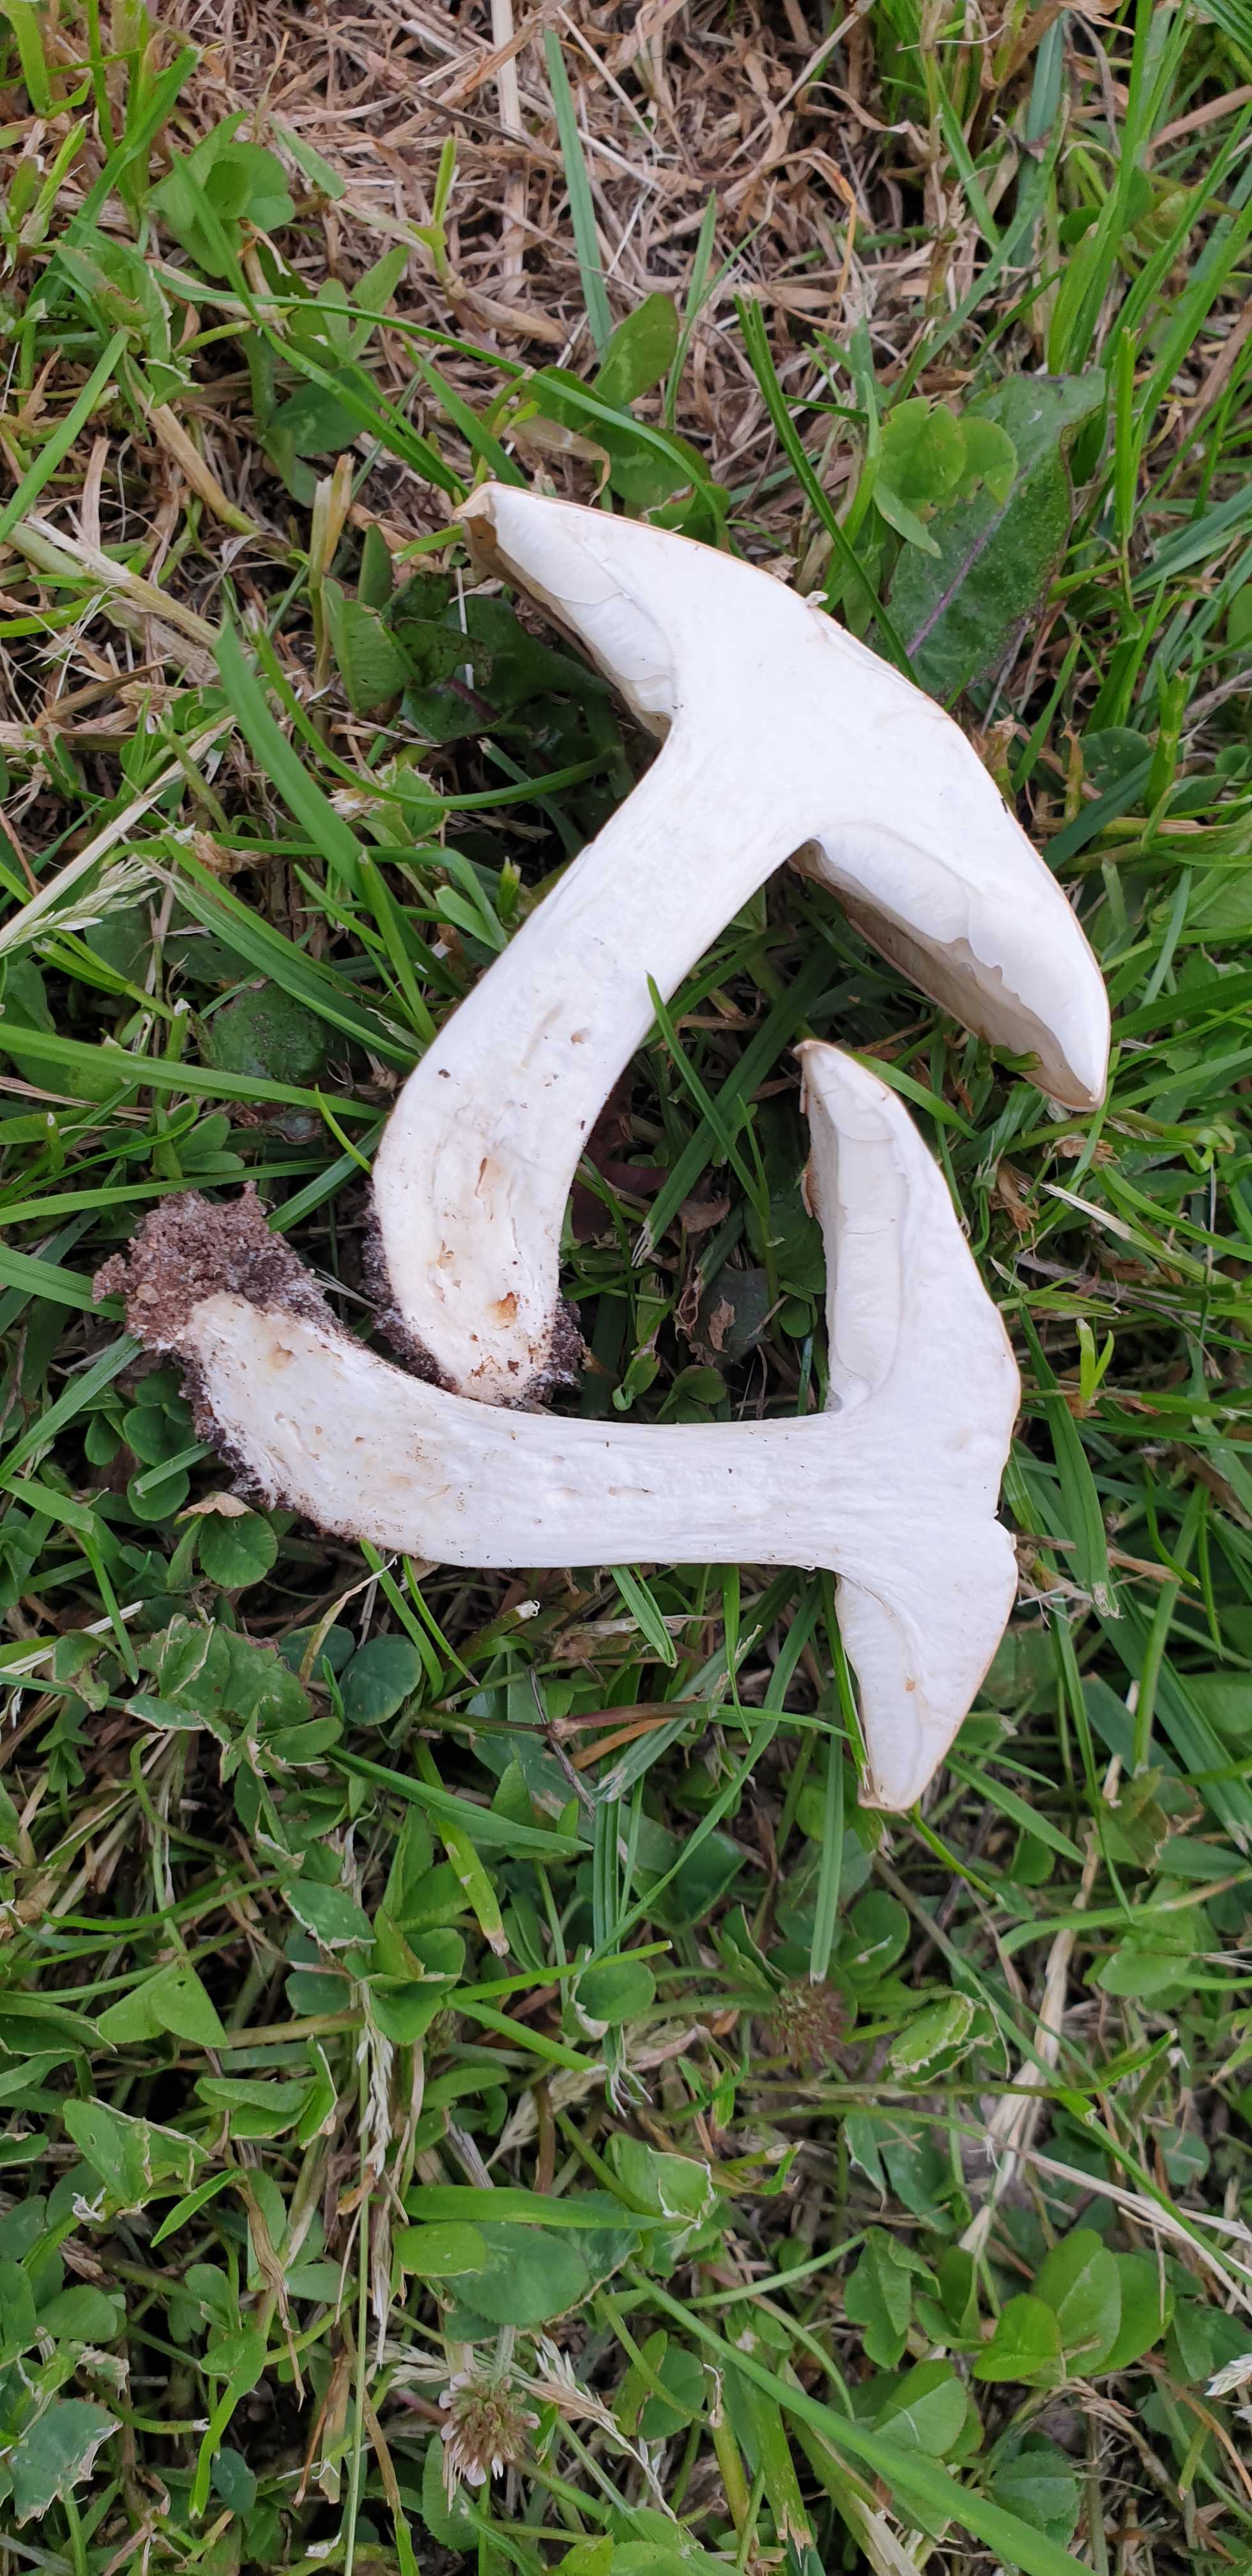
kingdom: Fungi
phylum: Basidiomycota
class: Agaricomycetes
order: Agaricales
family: Lyophyllaceae
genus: Calocybe
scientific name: Calocybe gambosa
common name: vårmusseron
